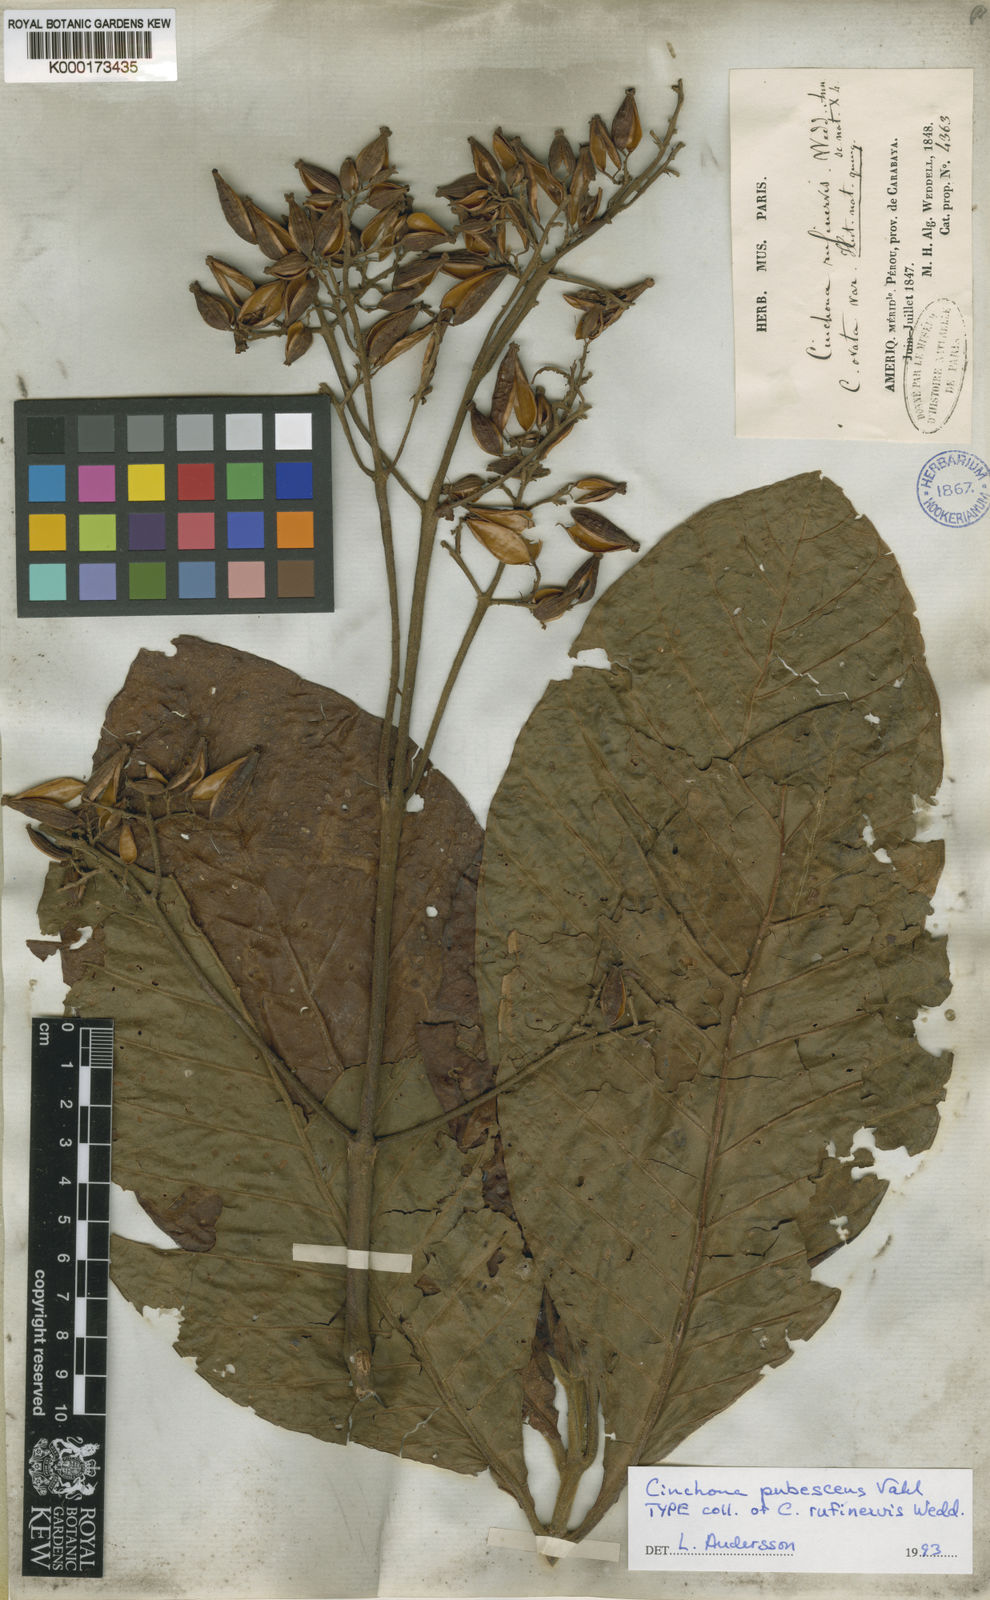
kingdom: Plantae
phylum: Tracheophyta
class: Magnoliopsida
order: Gentianales
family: Rubiaceae
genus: Cinchona
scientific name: Cinchona pubescens
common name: Quinine
